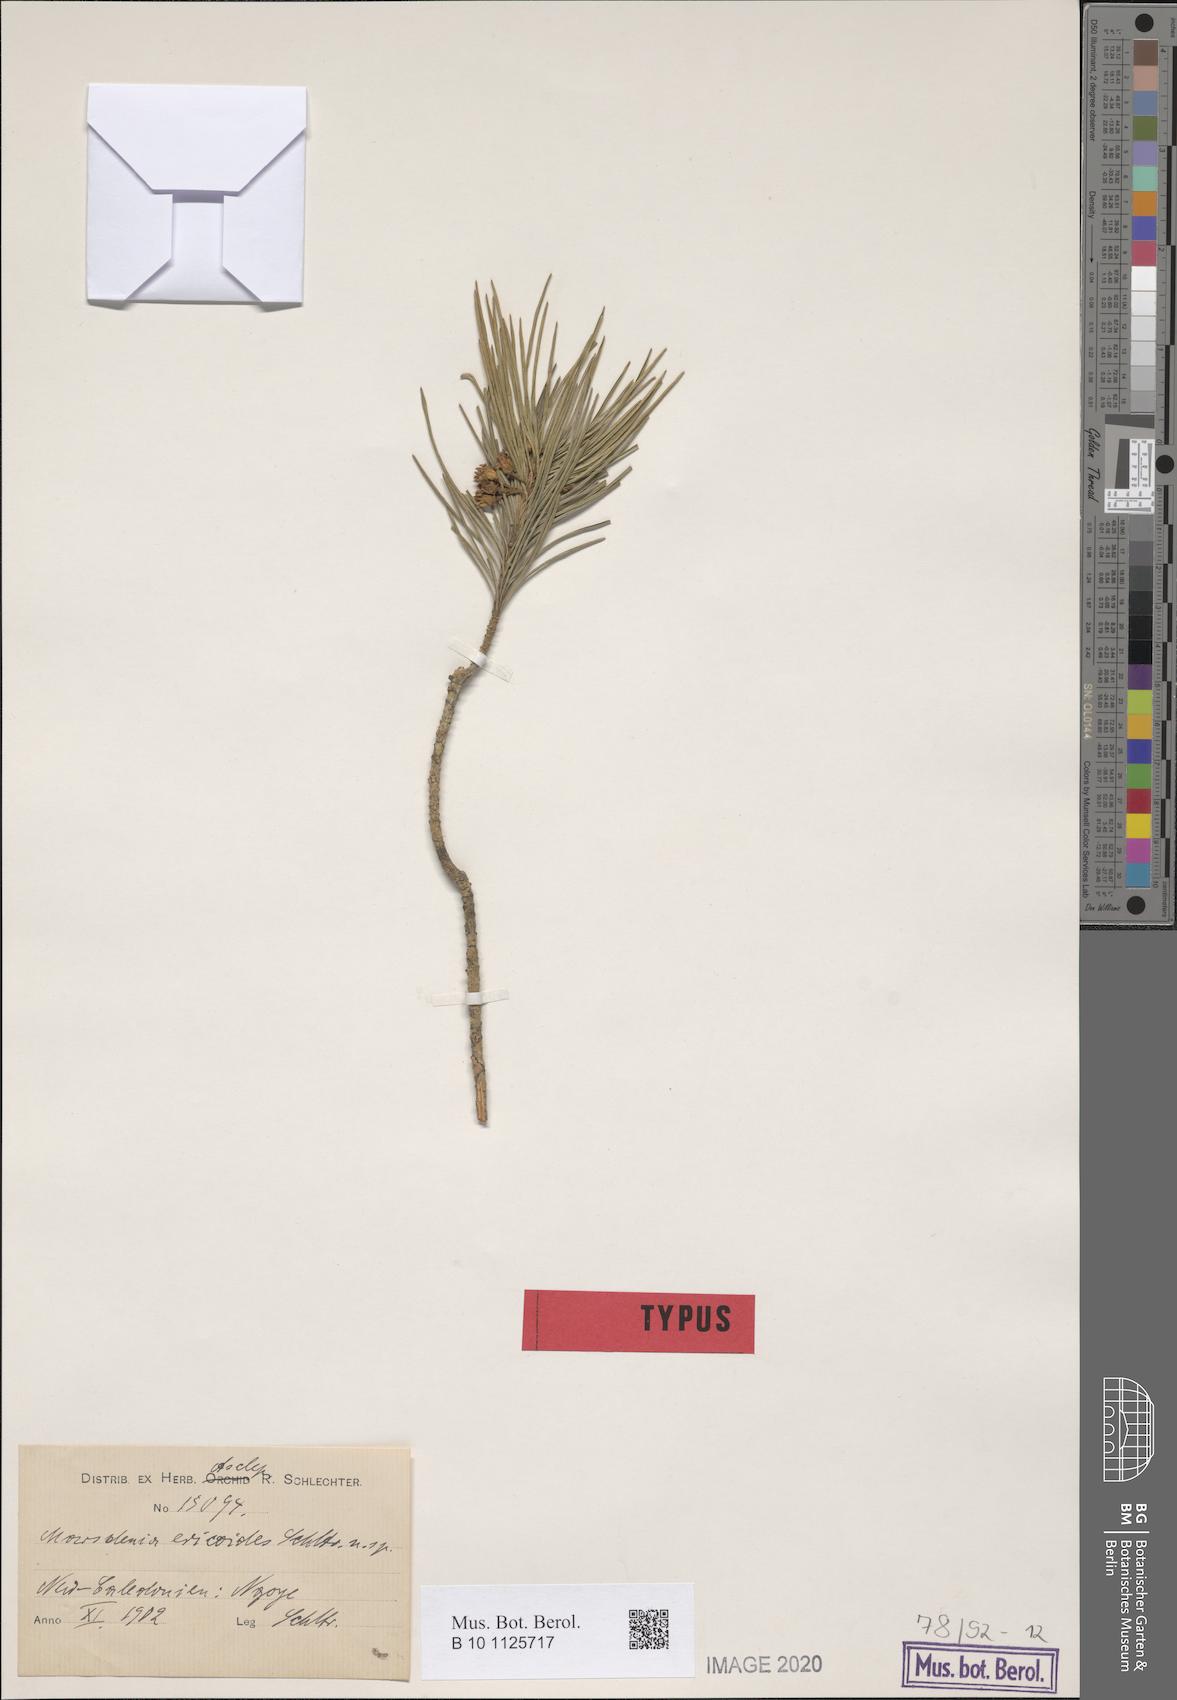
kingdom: Plantae
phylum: Tracheophyta
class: Magnoliopsida
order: Gentianales
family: Apocynaceae
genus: Leichhardtia
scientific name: Leichhardtia ericoides
